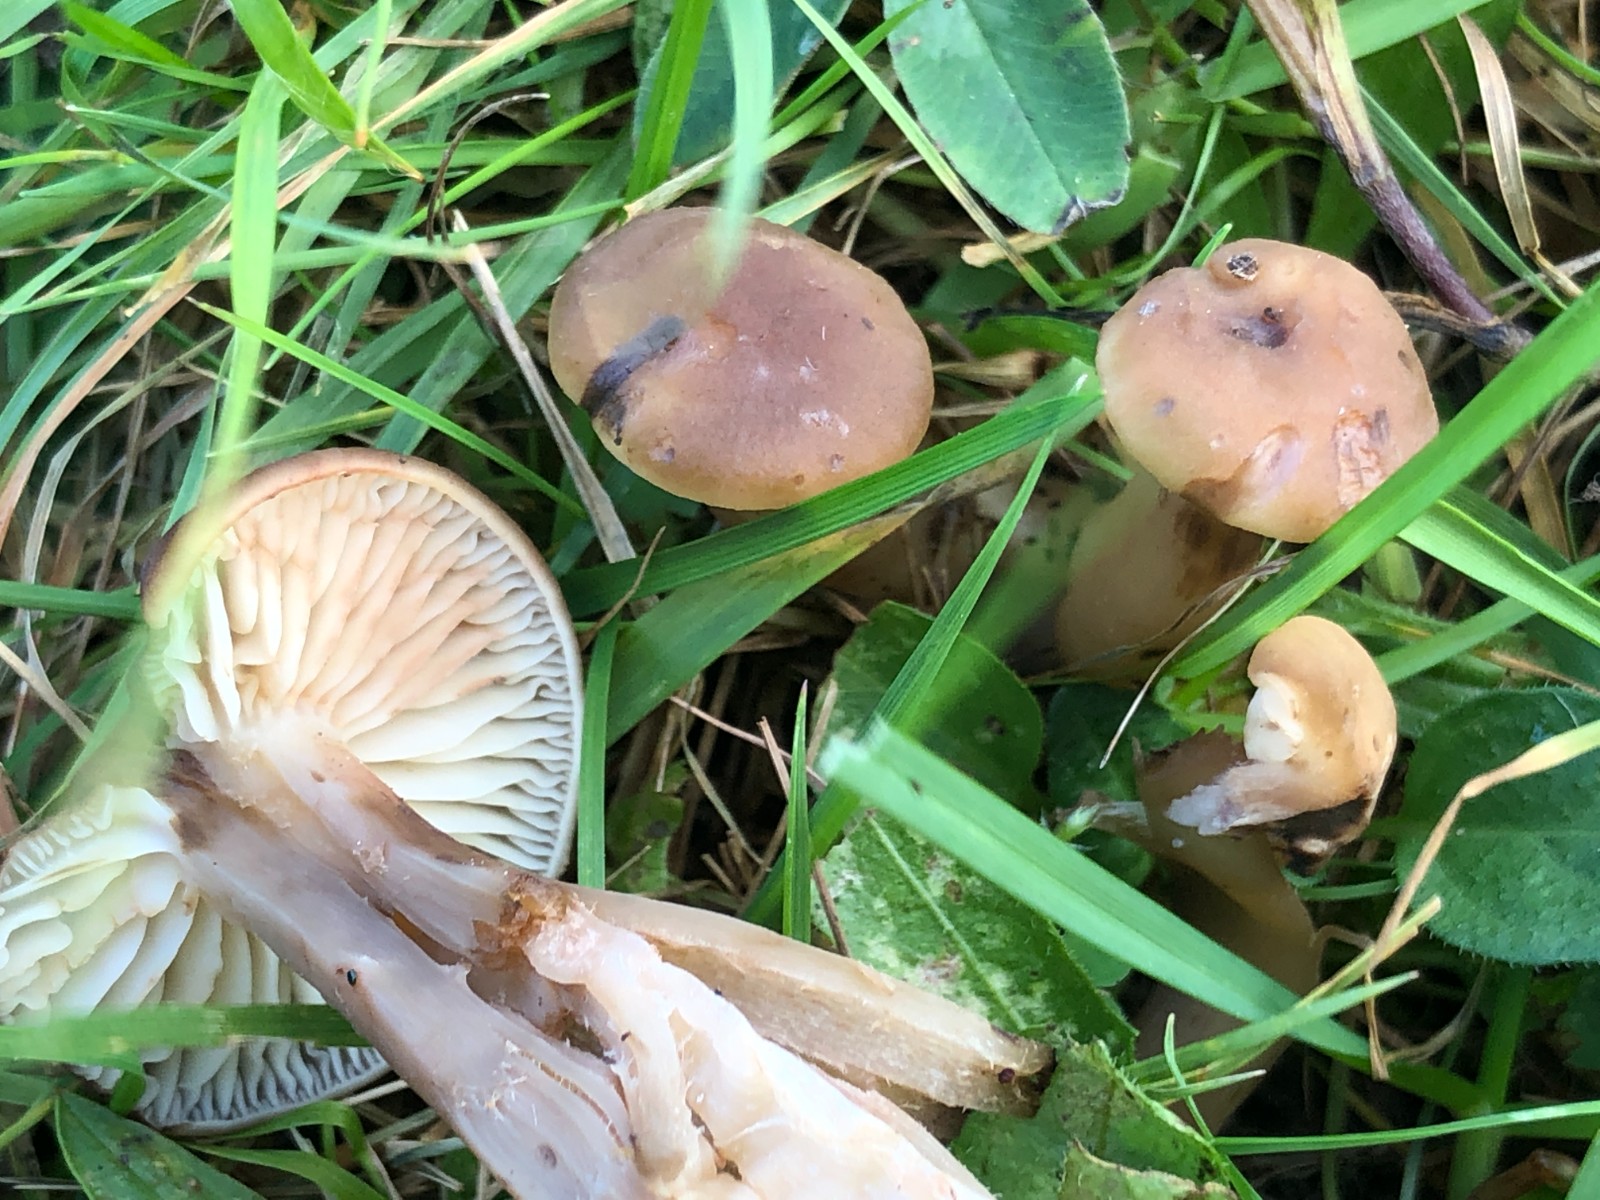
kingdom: Fungi
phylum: Basidiomycota
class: Agaricomycetes
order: Agaricales
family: Hygrophoraceae
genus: Hygrocybe
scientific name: Hygrocybe ingrata
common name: Jensens vokshat
